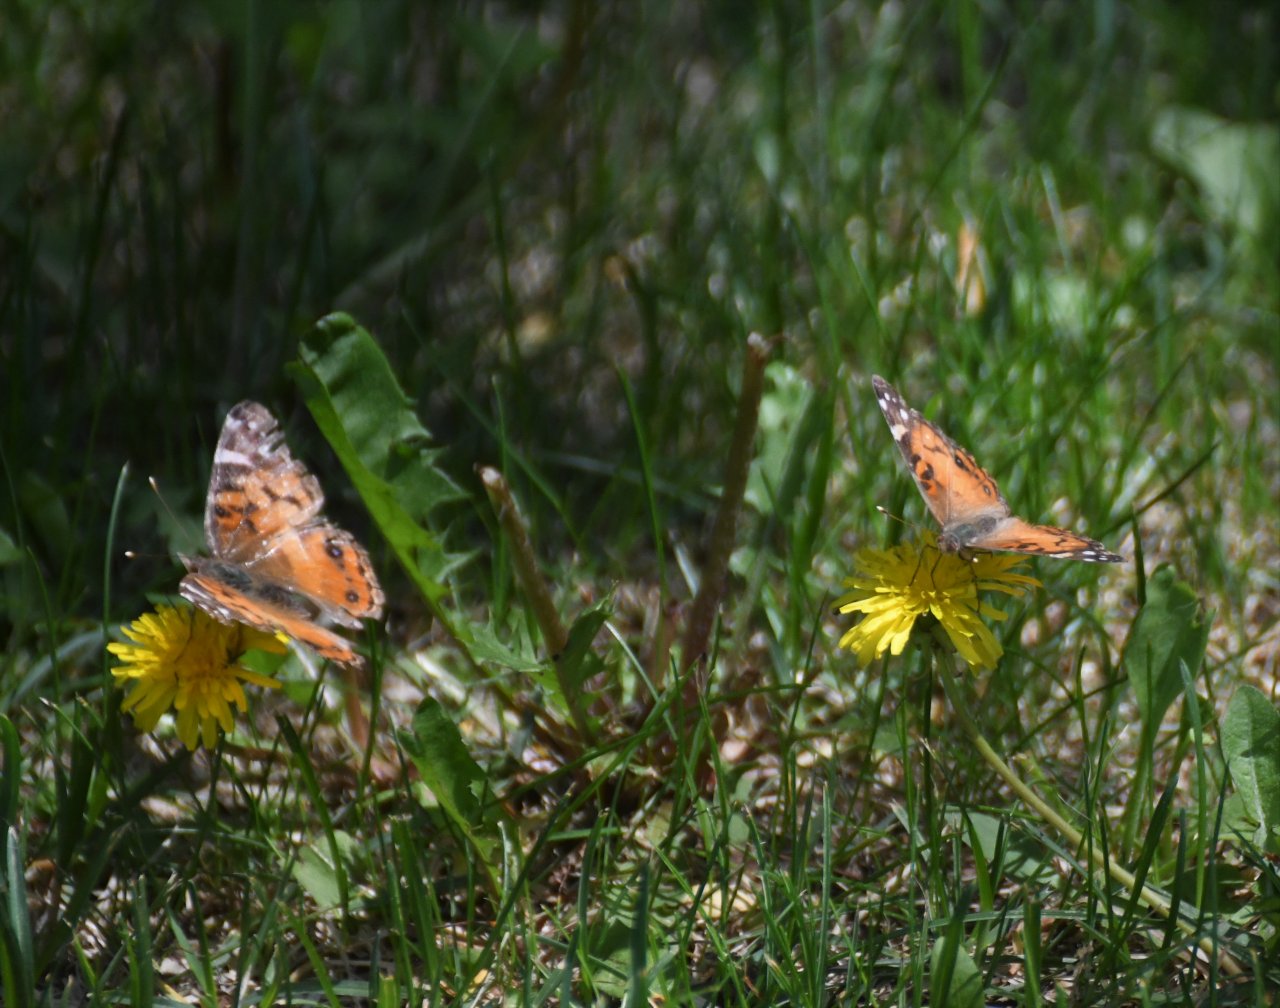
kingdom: Animalia
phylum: Arthropoda
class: Insecta
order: Lepidoptera
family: Nymphalidae
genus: Vanessa
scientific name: Vanessa virginiensis
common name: American Lady
